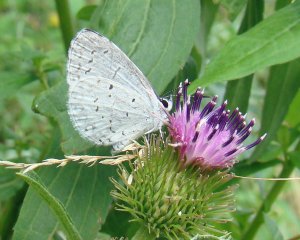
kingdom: Animalia
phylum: Arthropoda
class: Insecta
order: Lepidoptera
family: Lycaenidae
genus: Cyaniris
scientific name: Cyaniris neglecta
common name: Summer Azure
